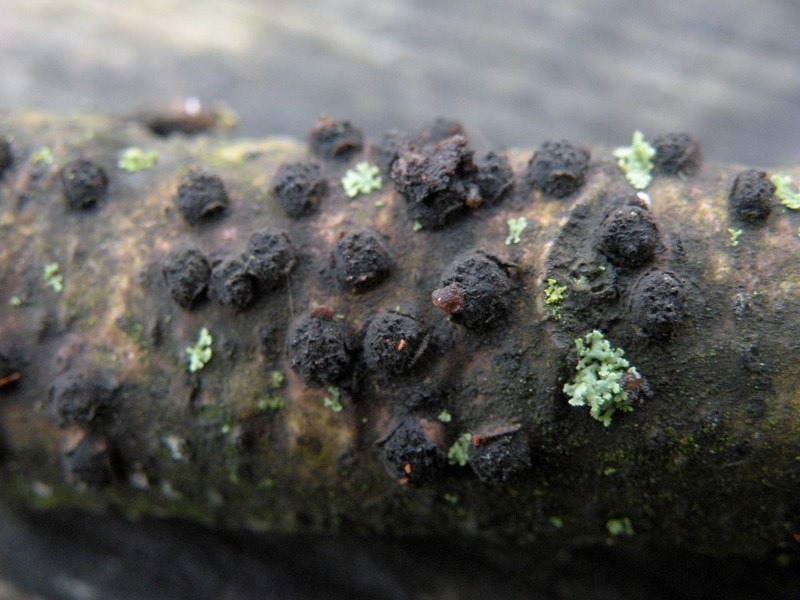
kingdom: Fungi
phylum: Ascomycota
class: Sordariomycetes
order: Xylariales
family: Diatrypaceae
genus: Diatrypella
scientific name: Diatrypella quercina
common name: ege-kulskorpe
